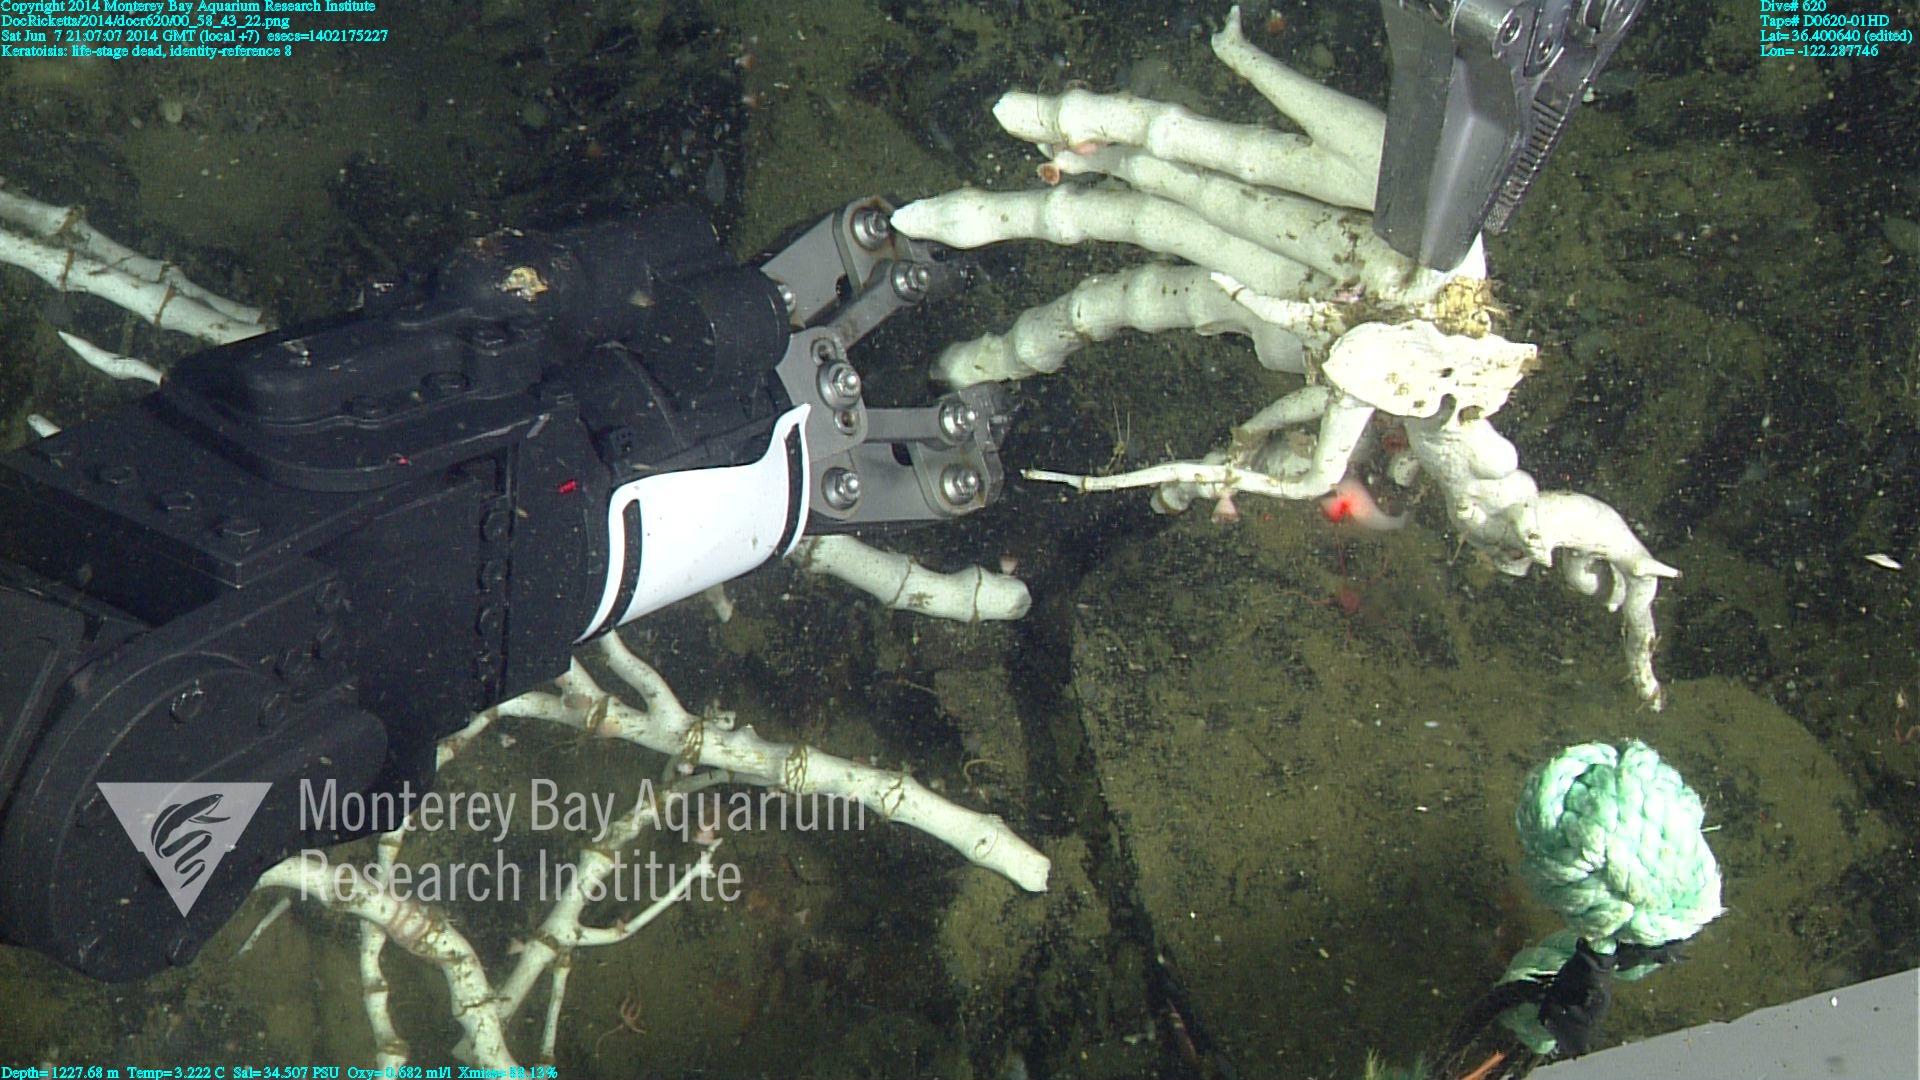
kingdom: Animalia
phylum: Cnidaria
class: Anthozoa
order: Scleralcyonacea
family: Keratoisididae
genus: Keratoisis
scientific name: Keratoisis
